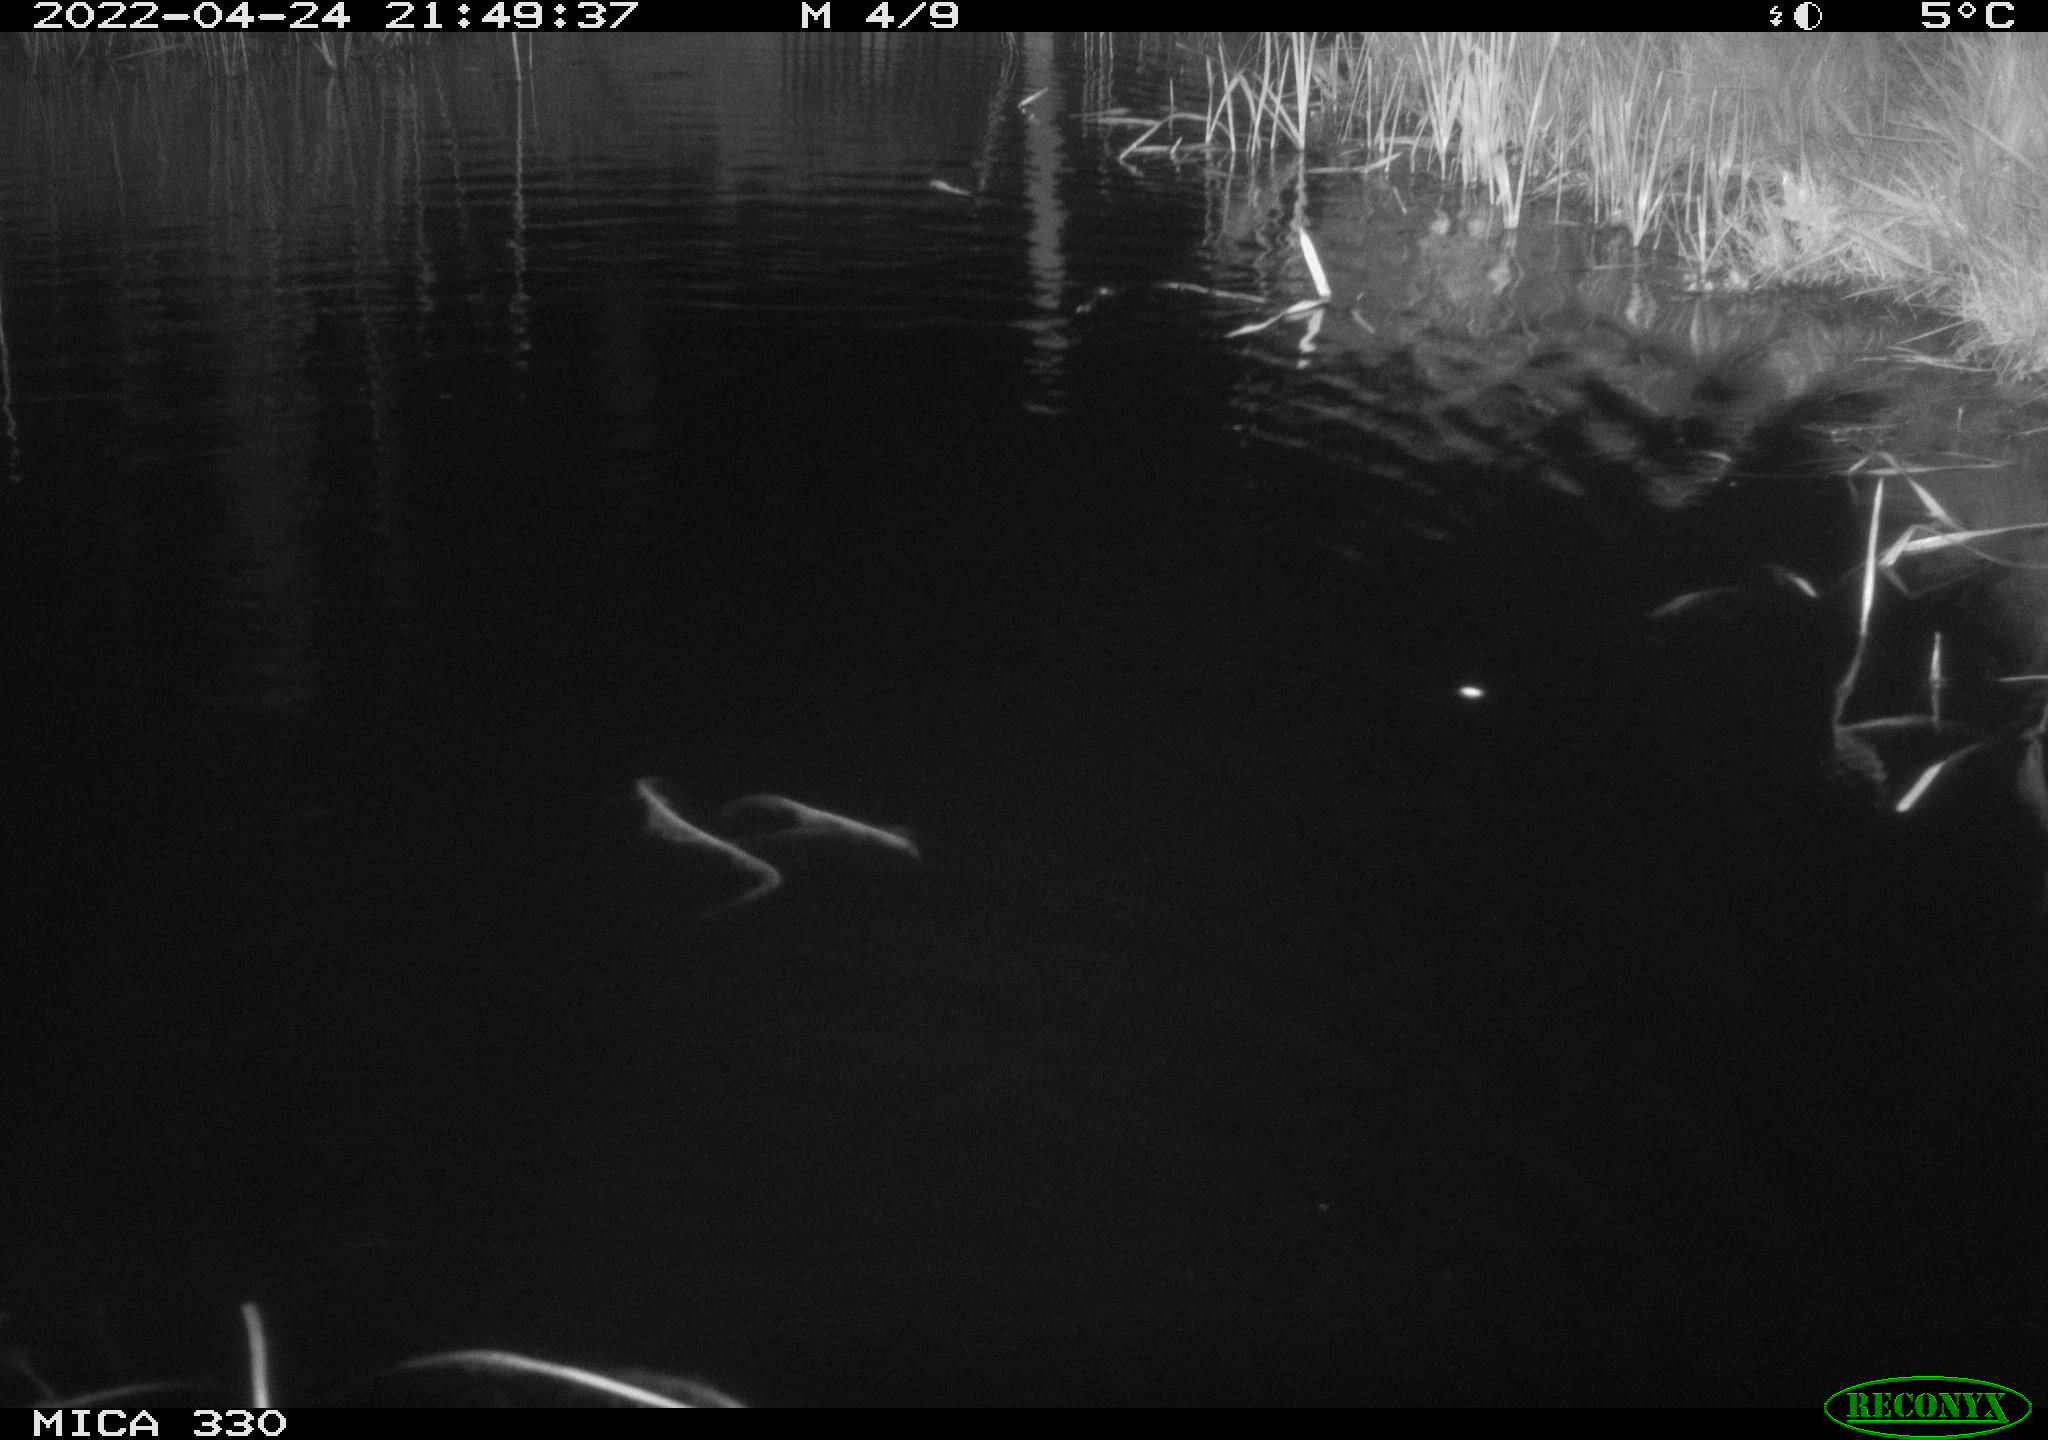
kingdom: Animalia
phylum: Chordata
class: Mammalia
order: Rodentia
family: Cricetidae
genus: Ondatra
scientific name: Ondatra zibethicus
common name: Muskrat
